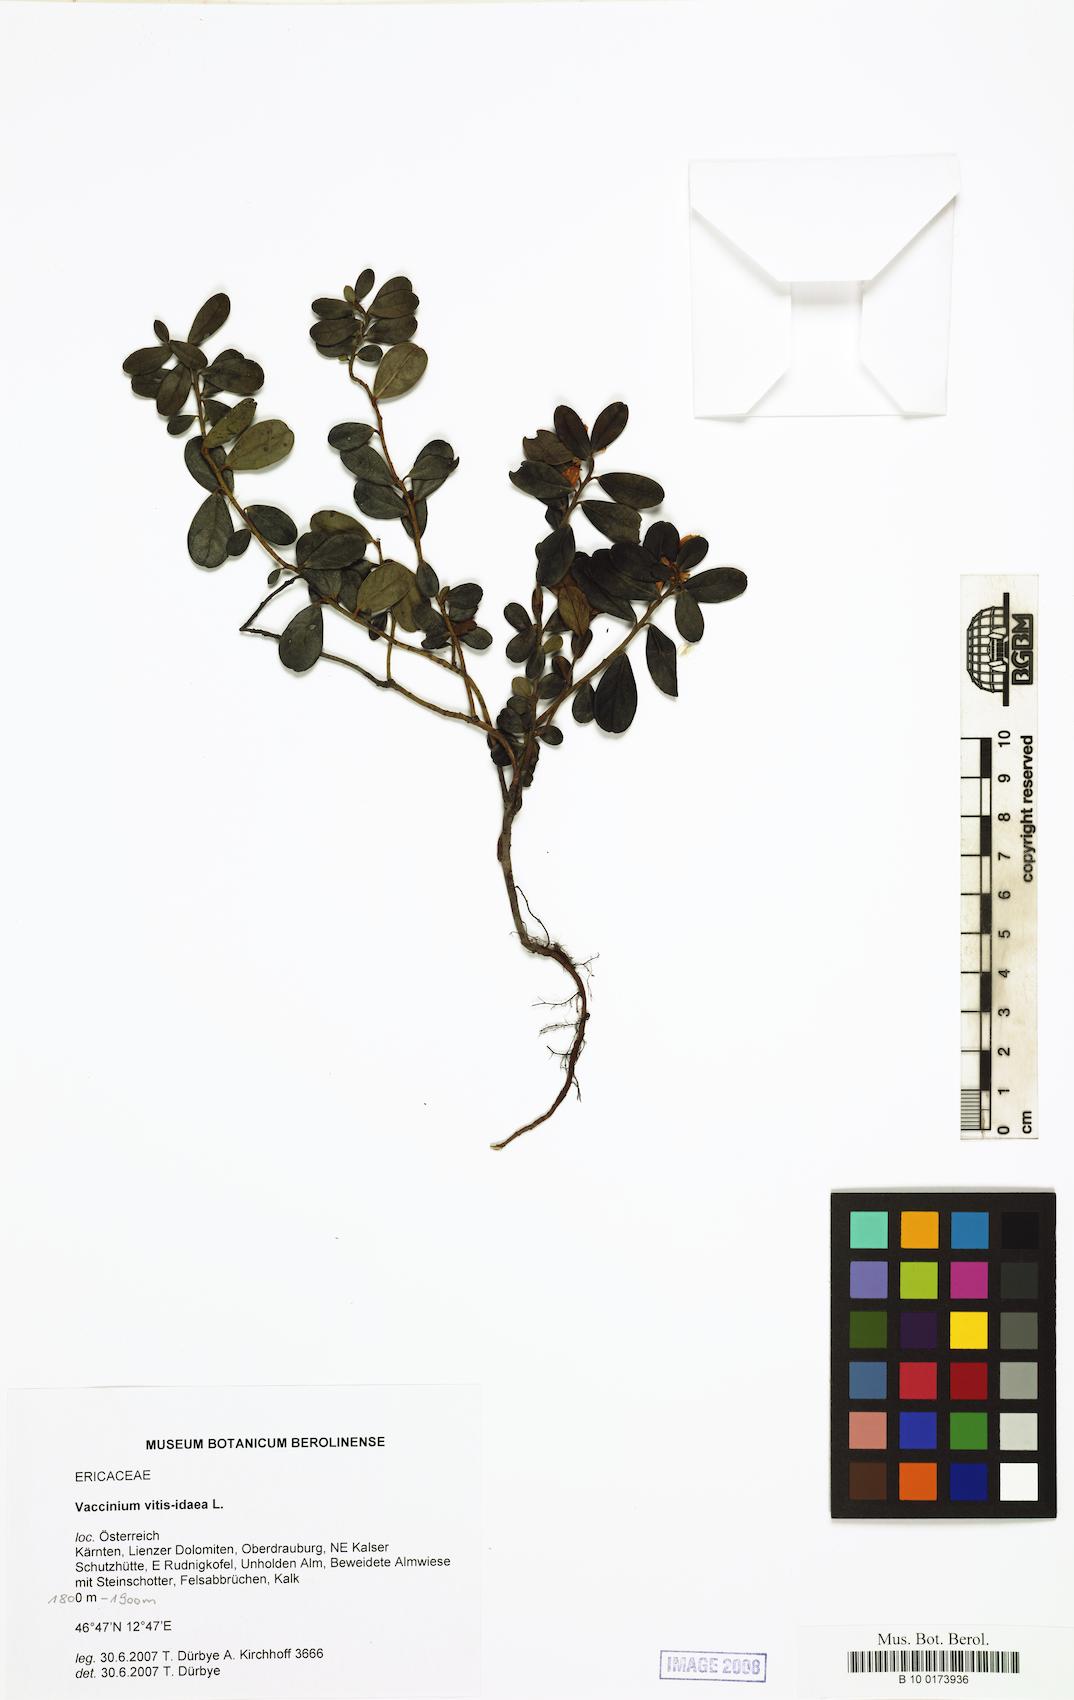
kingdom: Plantae
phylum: Tracheophyta
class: Magnoliopsida
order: Ericales
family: Ericaceae
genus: Vaccinium
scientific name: Vaccinium vitis-idaea
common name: Cowberry
